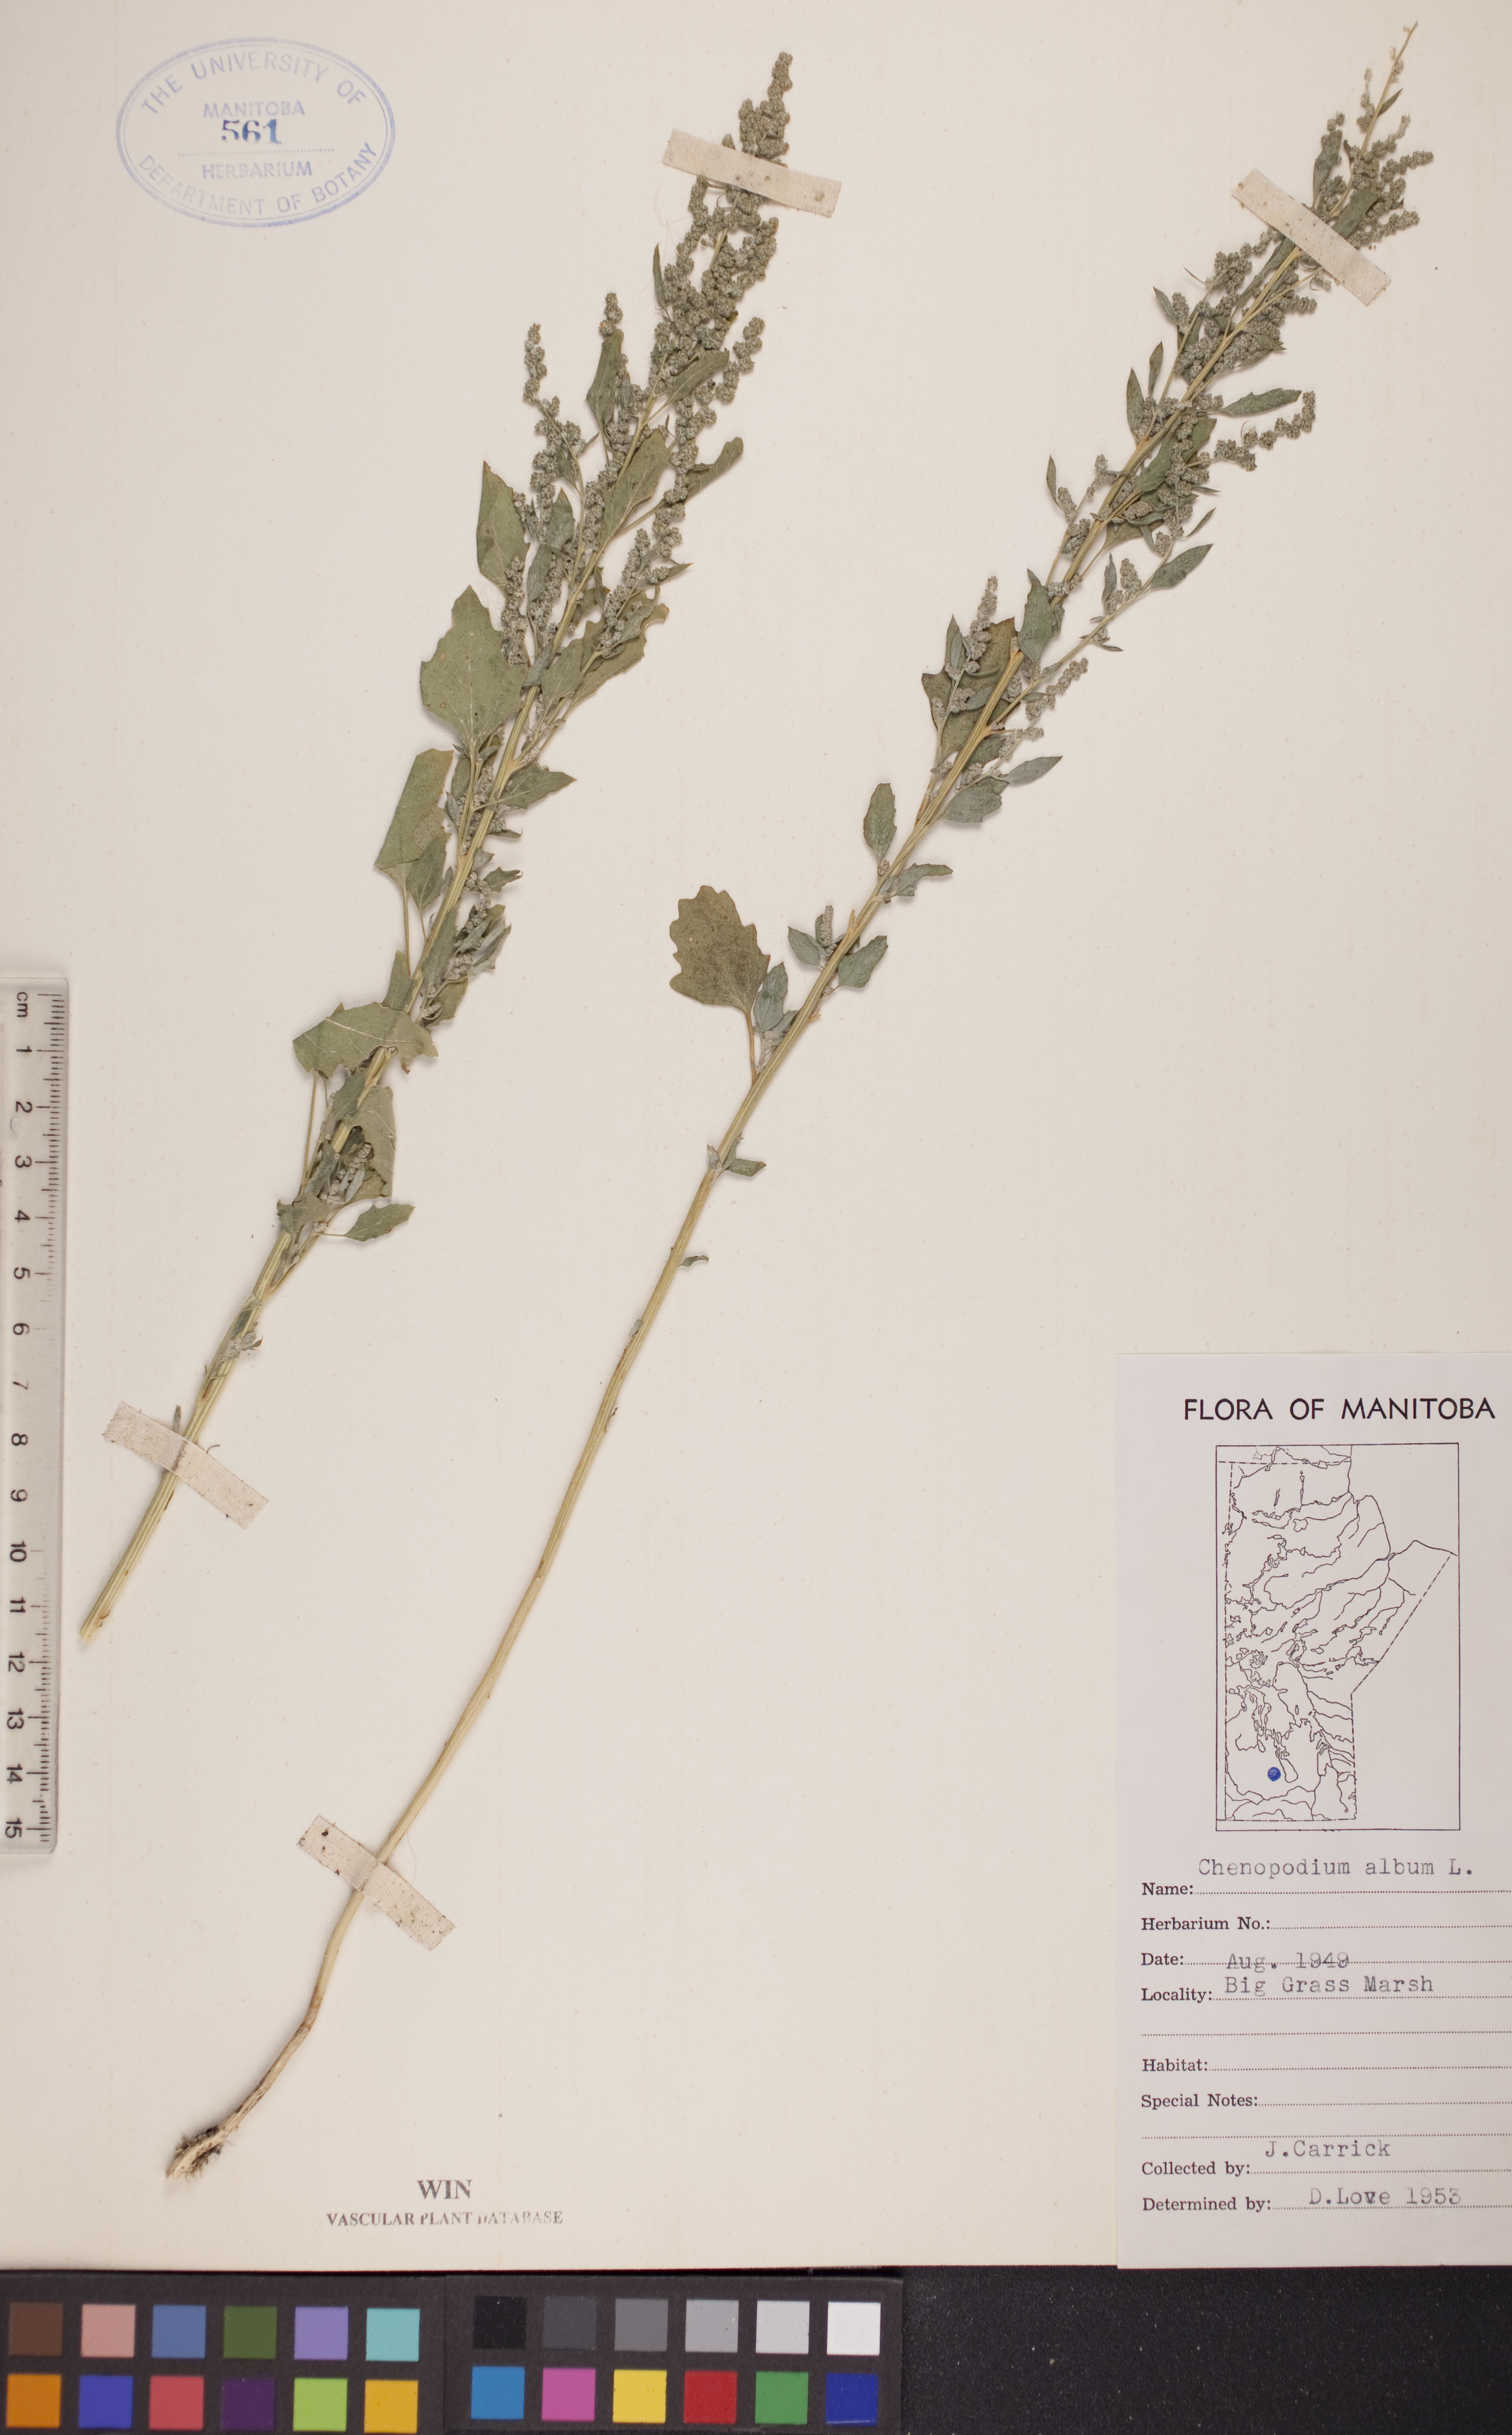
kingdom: Plantae
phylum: Tracheophyta
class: Magnoliopsida
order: Caryophyllales
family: Amaranthaceae
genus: Chenopodium
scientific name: Chenopodium album
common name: Fat-hen
